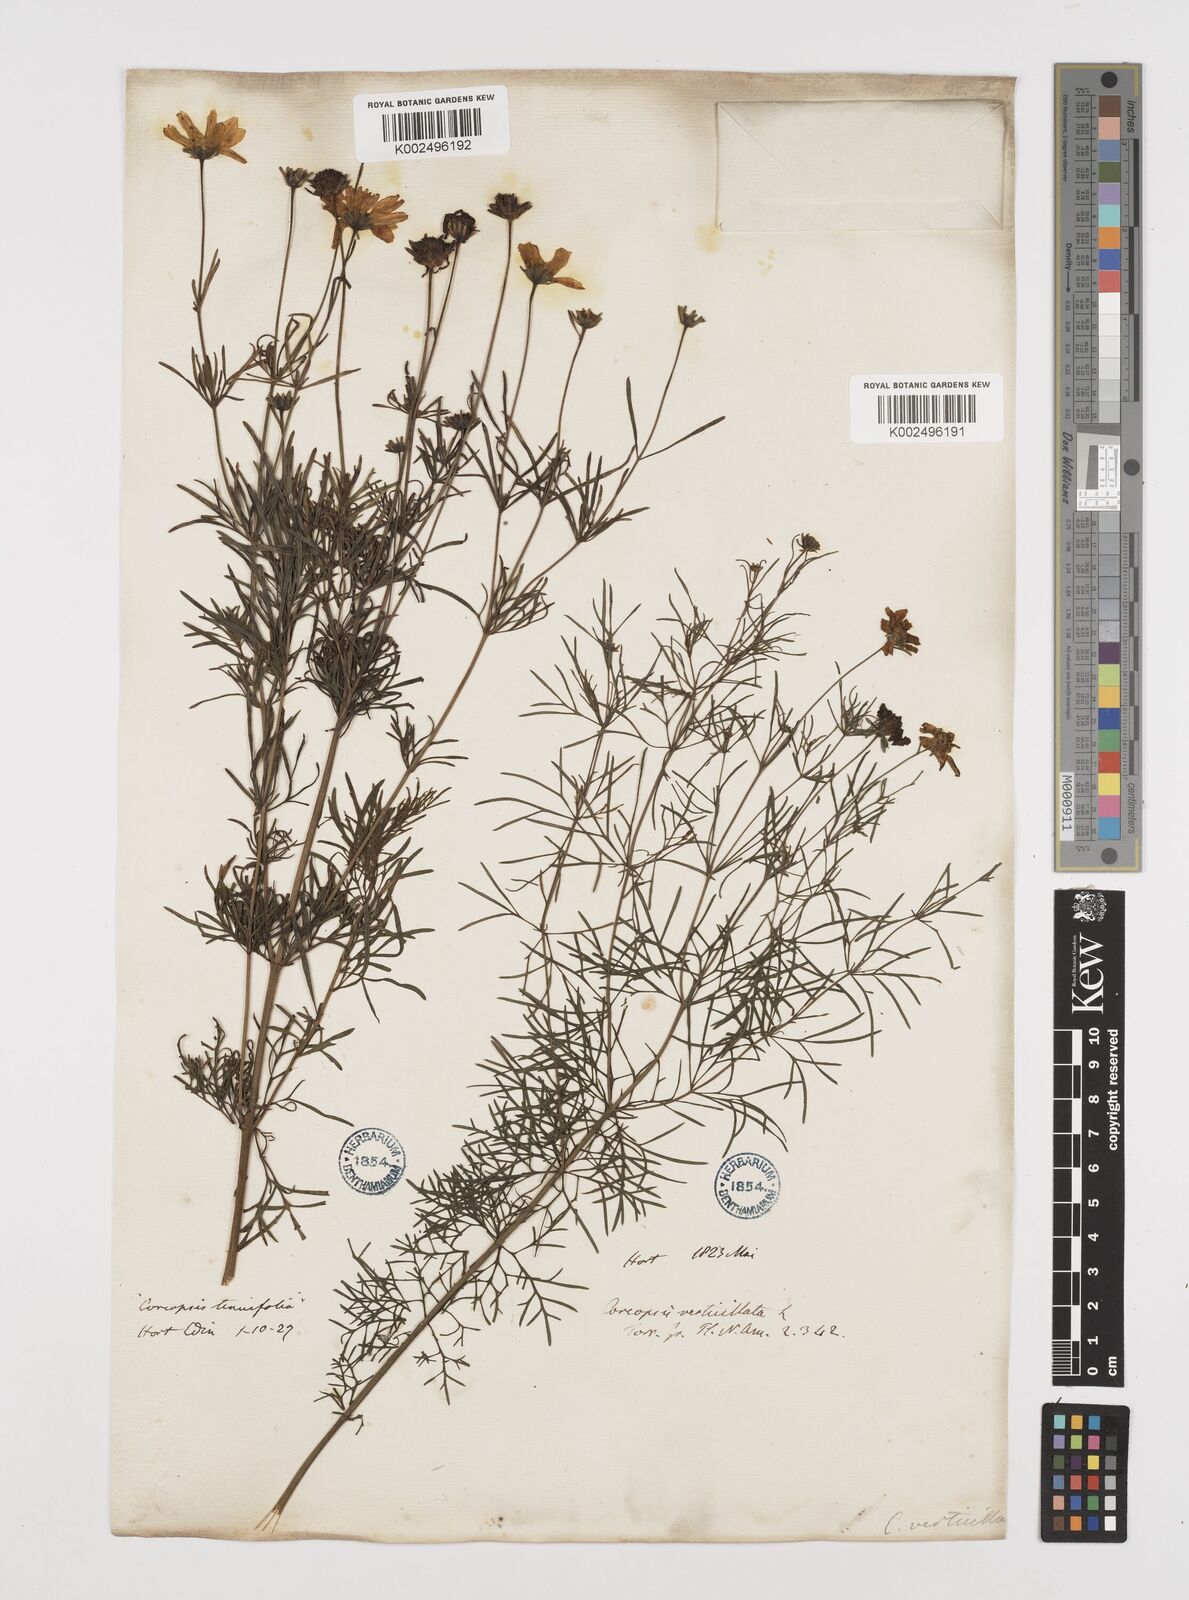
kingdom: Plantae
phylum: Tracheophyta
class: Magnoliopsida
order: Asterales
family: Asteraceae
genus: Coreopsis
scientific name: Coreopsis verticillata
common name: Whorled tickseed
